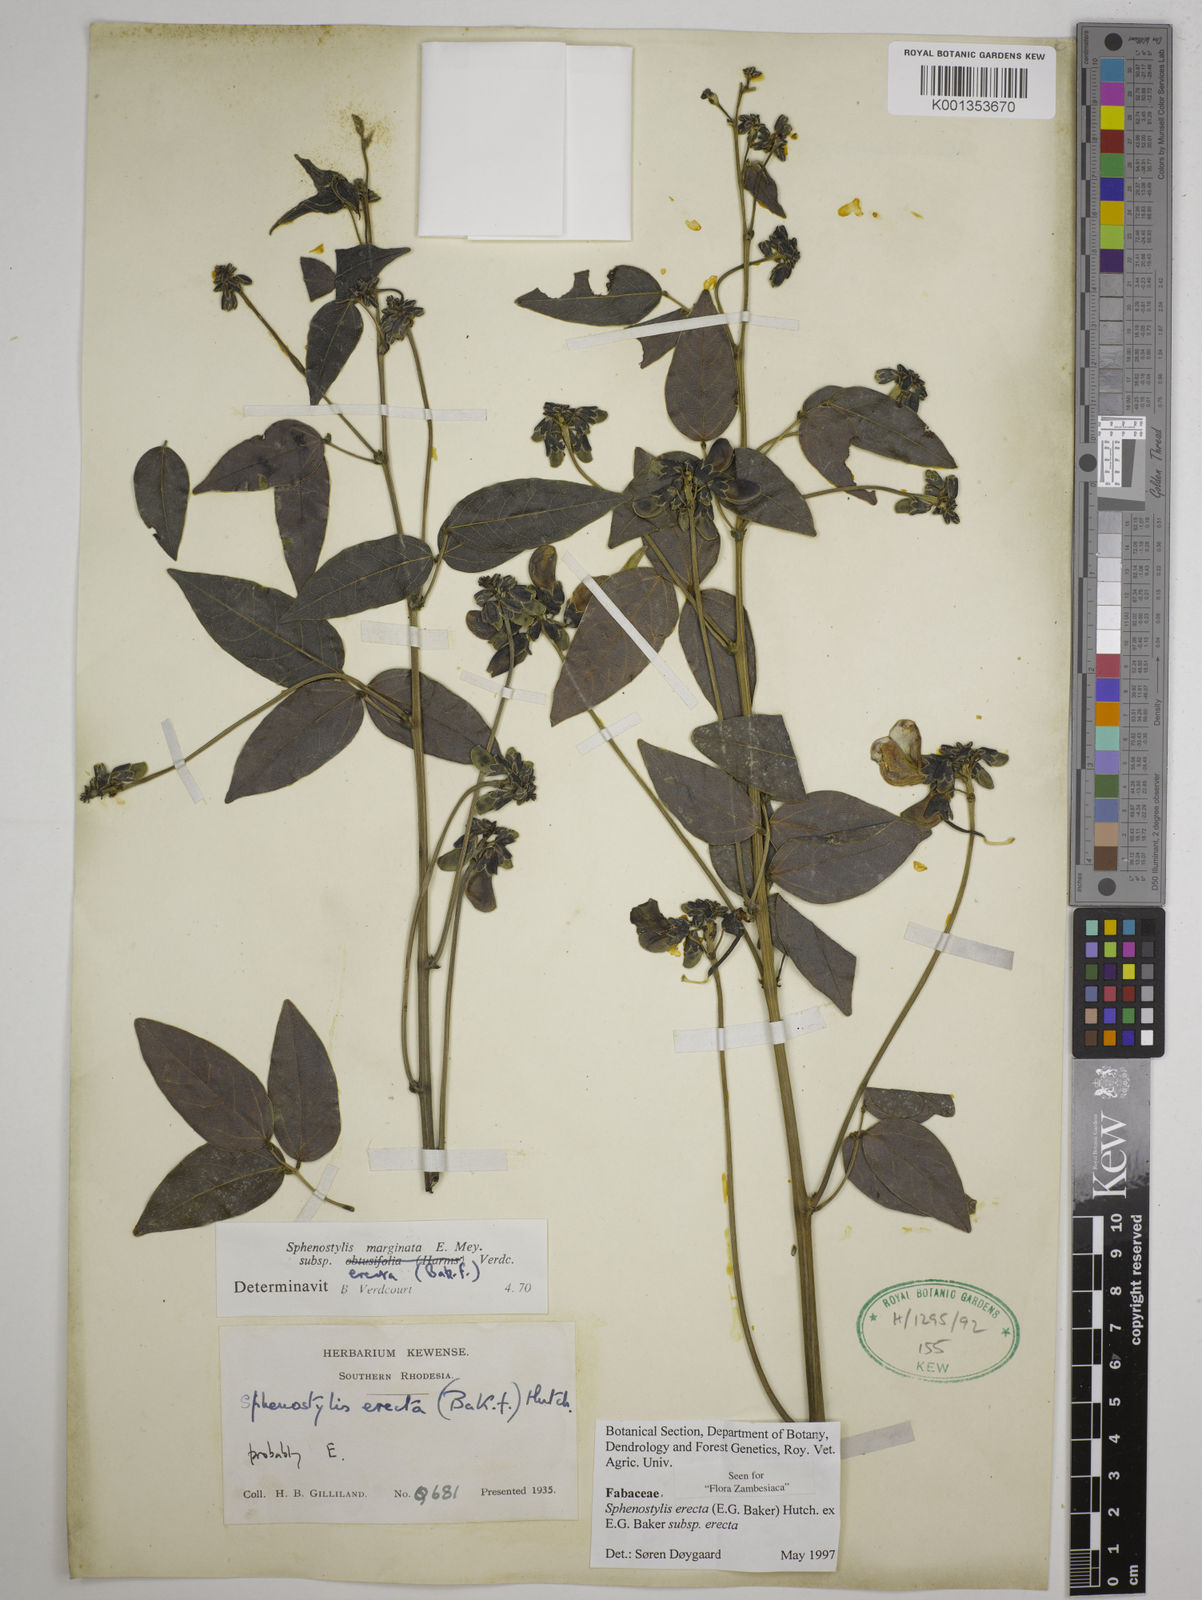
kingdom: Plantae
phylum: Tracheophyta
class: Magnoliopsida
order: Fabales
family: Fabaceae
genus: Sphenostylis
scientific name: Sphenostylis erecta
